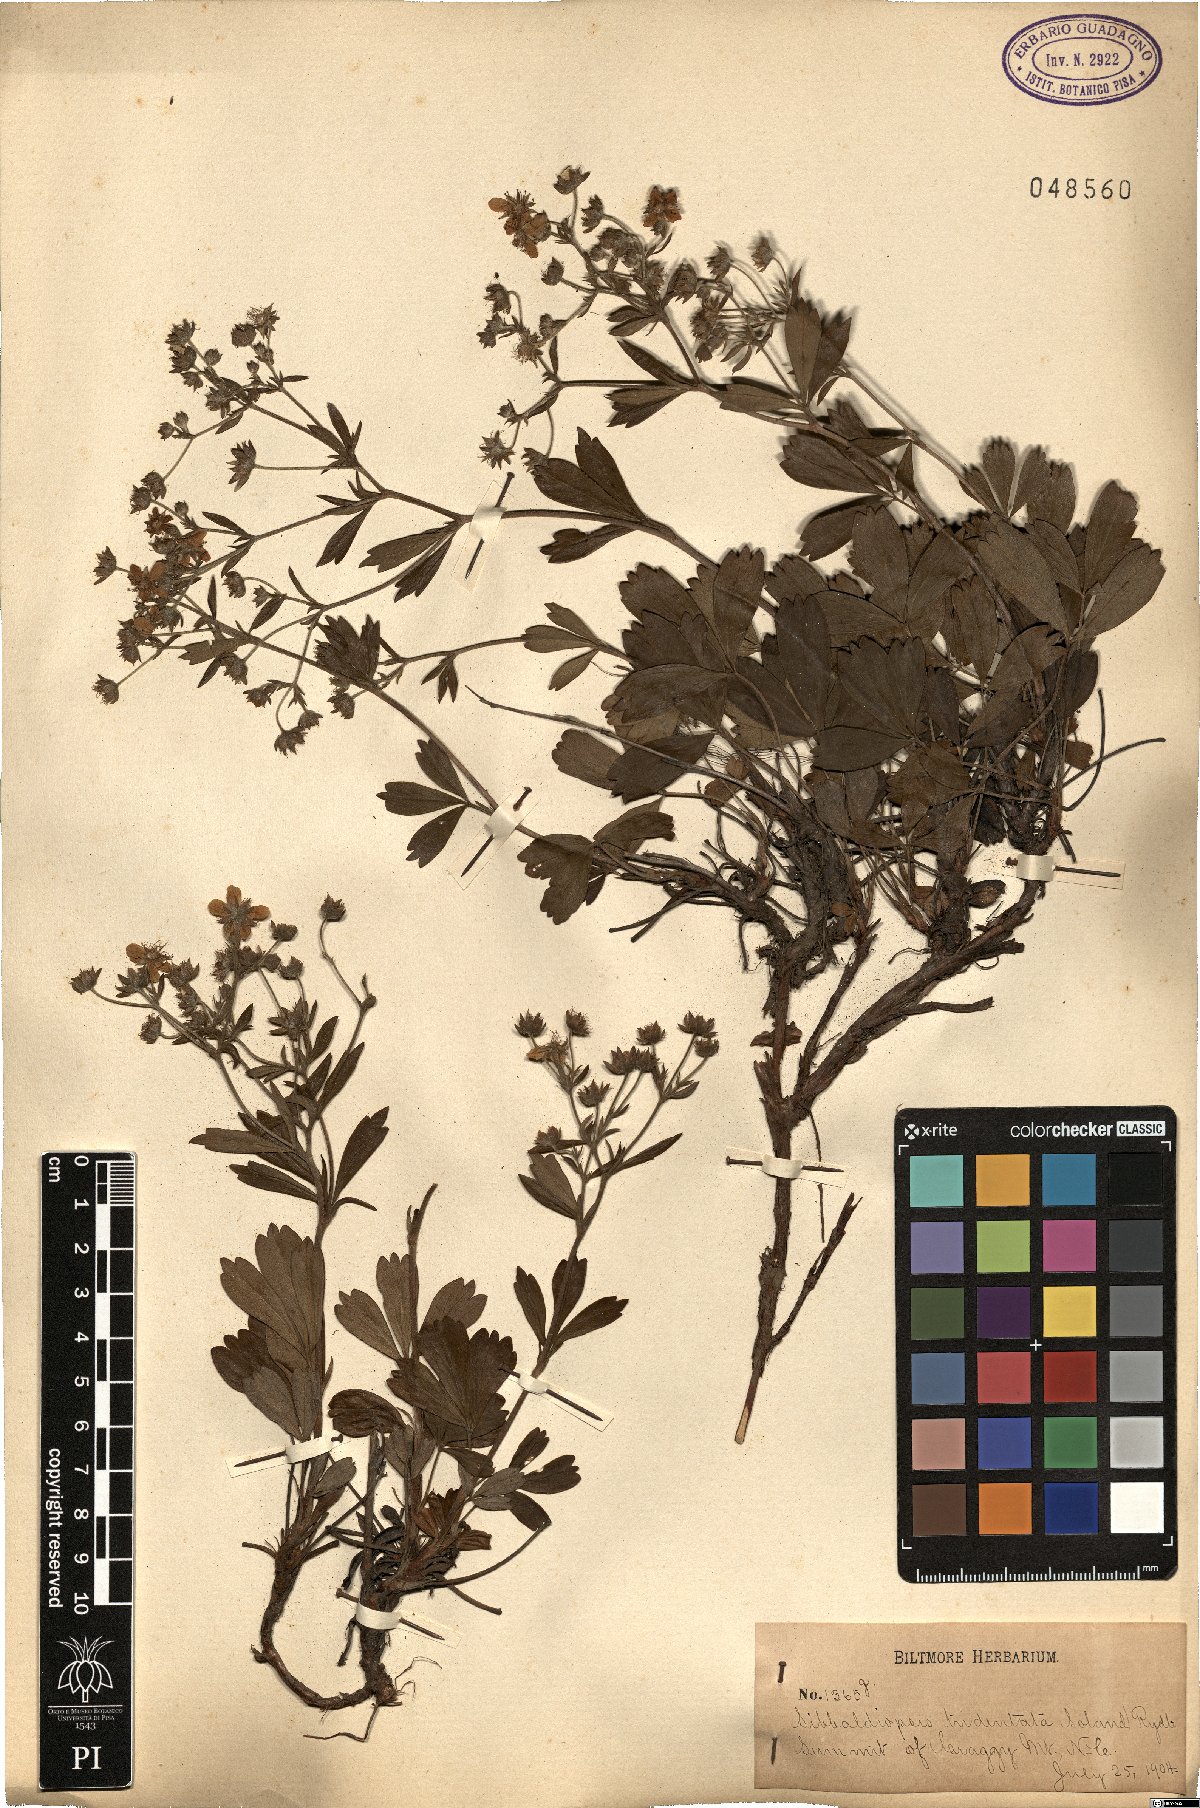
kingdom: Plantae
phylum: Tracheophyta
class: Magnoliopsida
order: Rosales
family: Rosaceae
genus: Sibbaldia
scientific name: Sibbaldia tridentata
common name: Three-toothed cinquefoil
